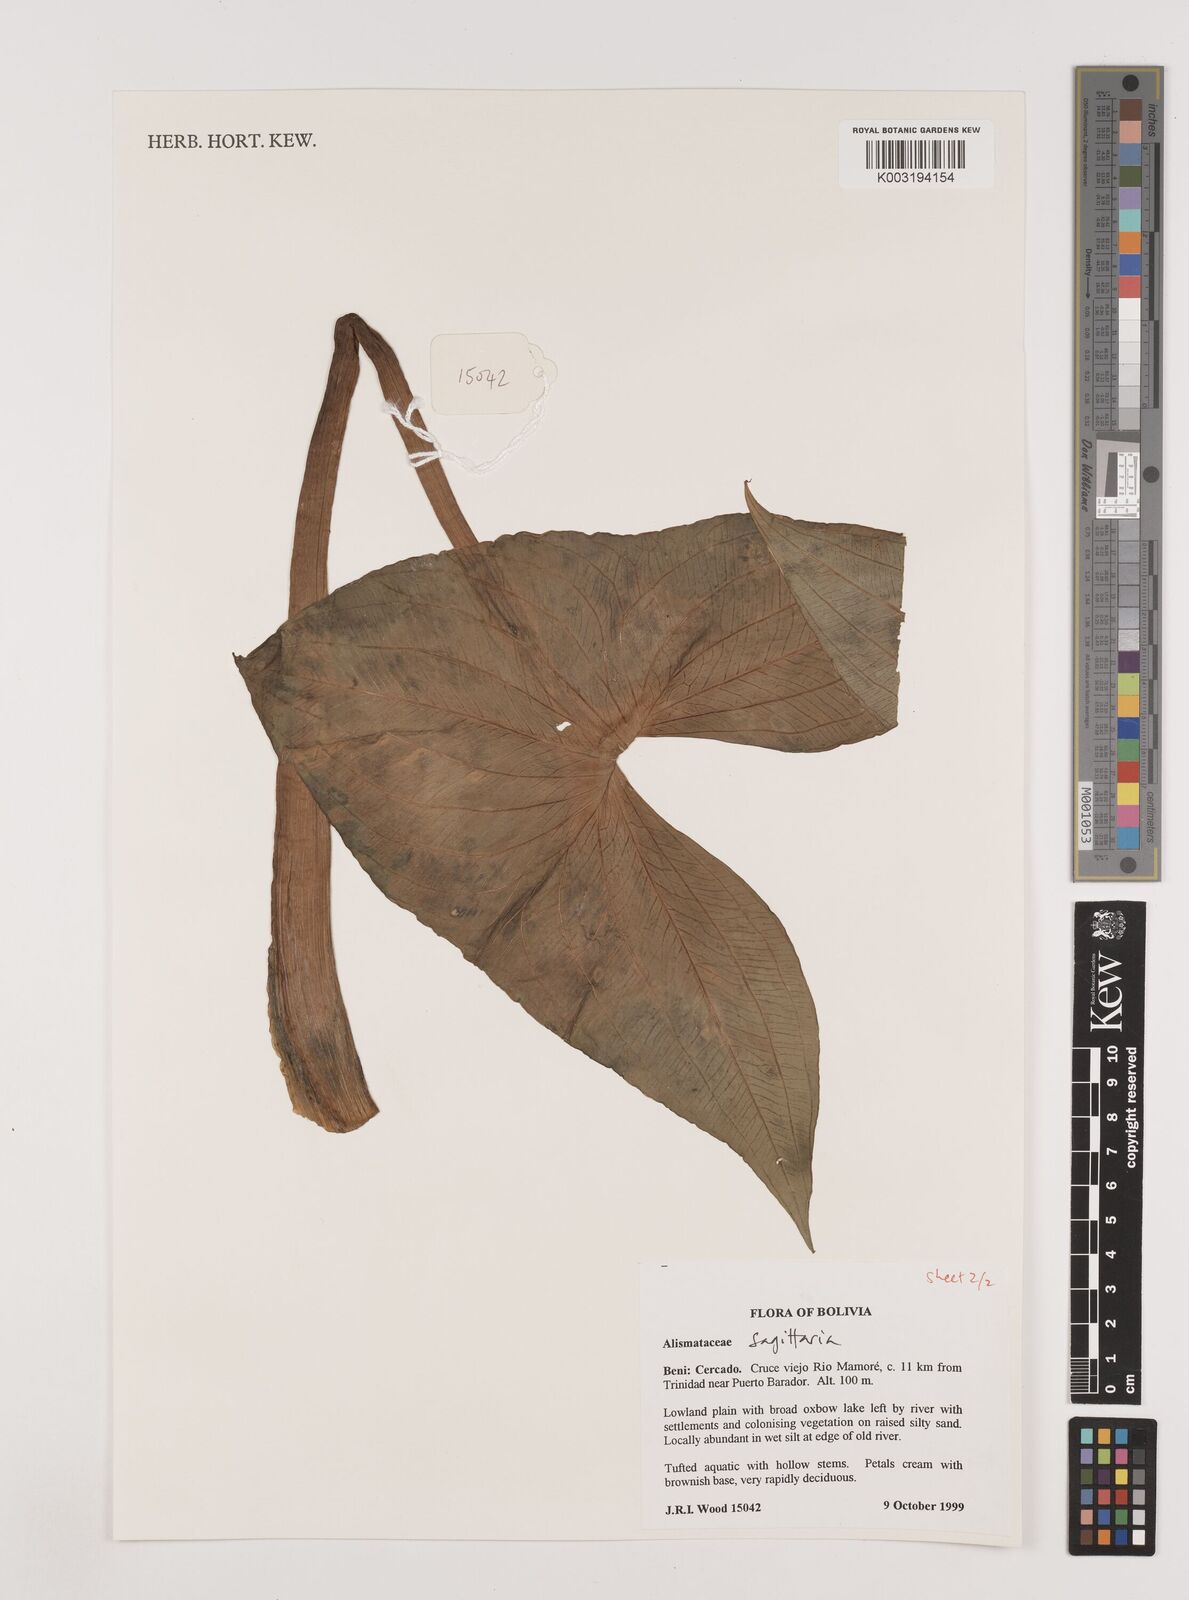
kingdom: Plantae
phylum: Tracheophyta
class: Liliopsida
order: Alismatales
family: Alismataceae
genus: Sagittaria
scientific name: Sagittaria
